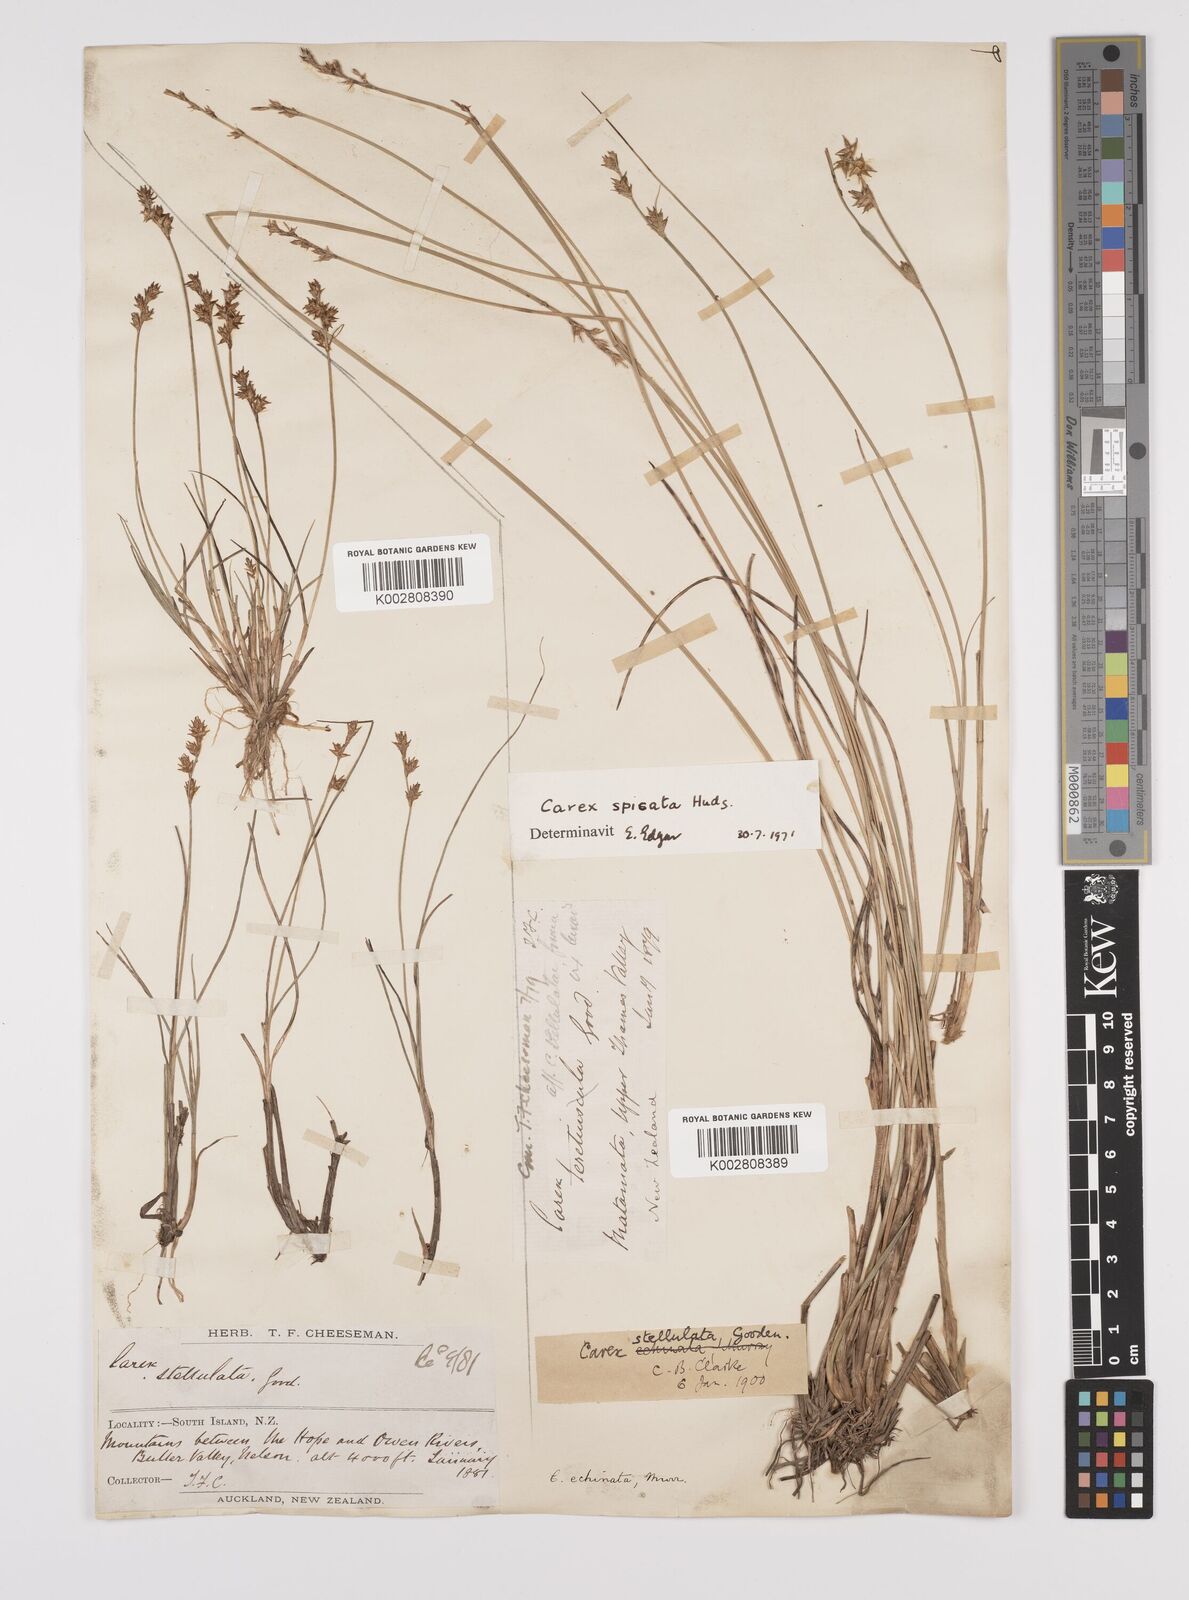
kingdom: Plantae
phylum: Tracheophyta
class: Liliopsida
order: Poales
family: Cyperaceae
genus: Carex
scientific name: Carex echinata
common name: Star sedge
